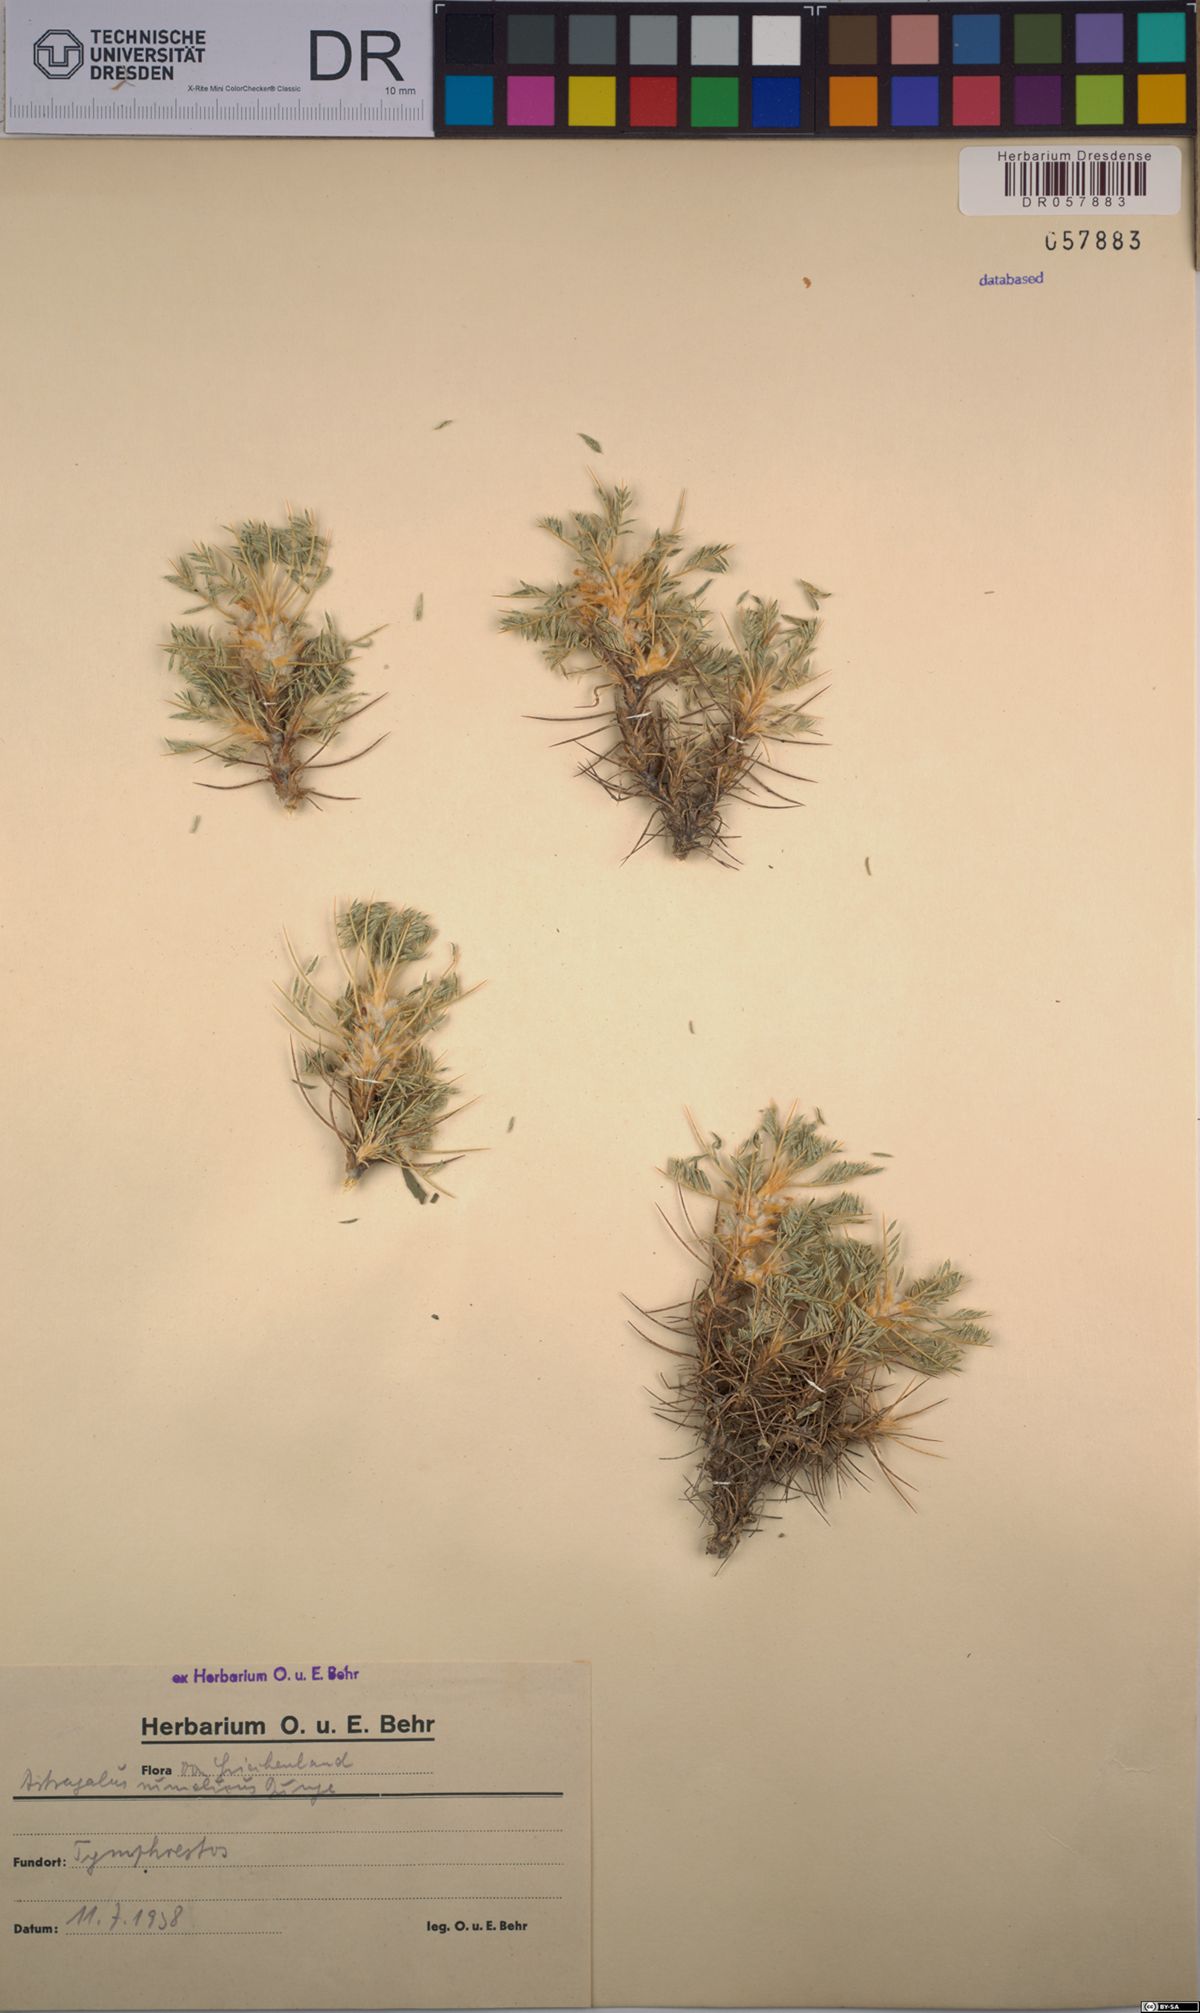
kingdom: Plantae
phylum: Tracheophyta
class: Magnoliopsida
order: Fabales
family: Fabaceae
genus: Astragalus
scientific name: Astragalus
